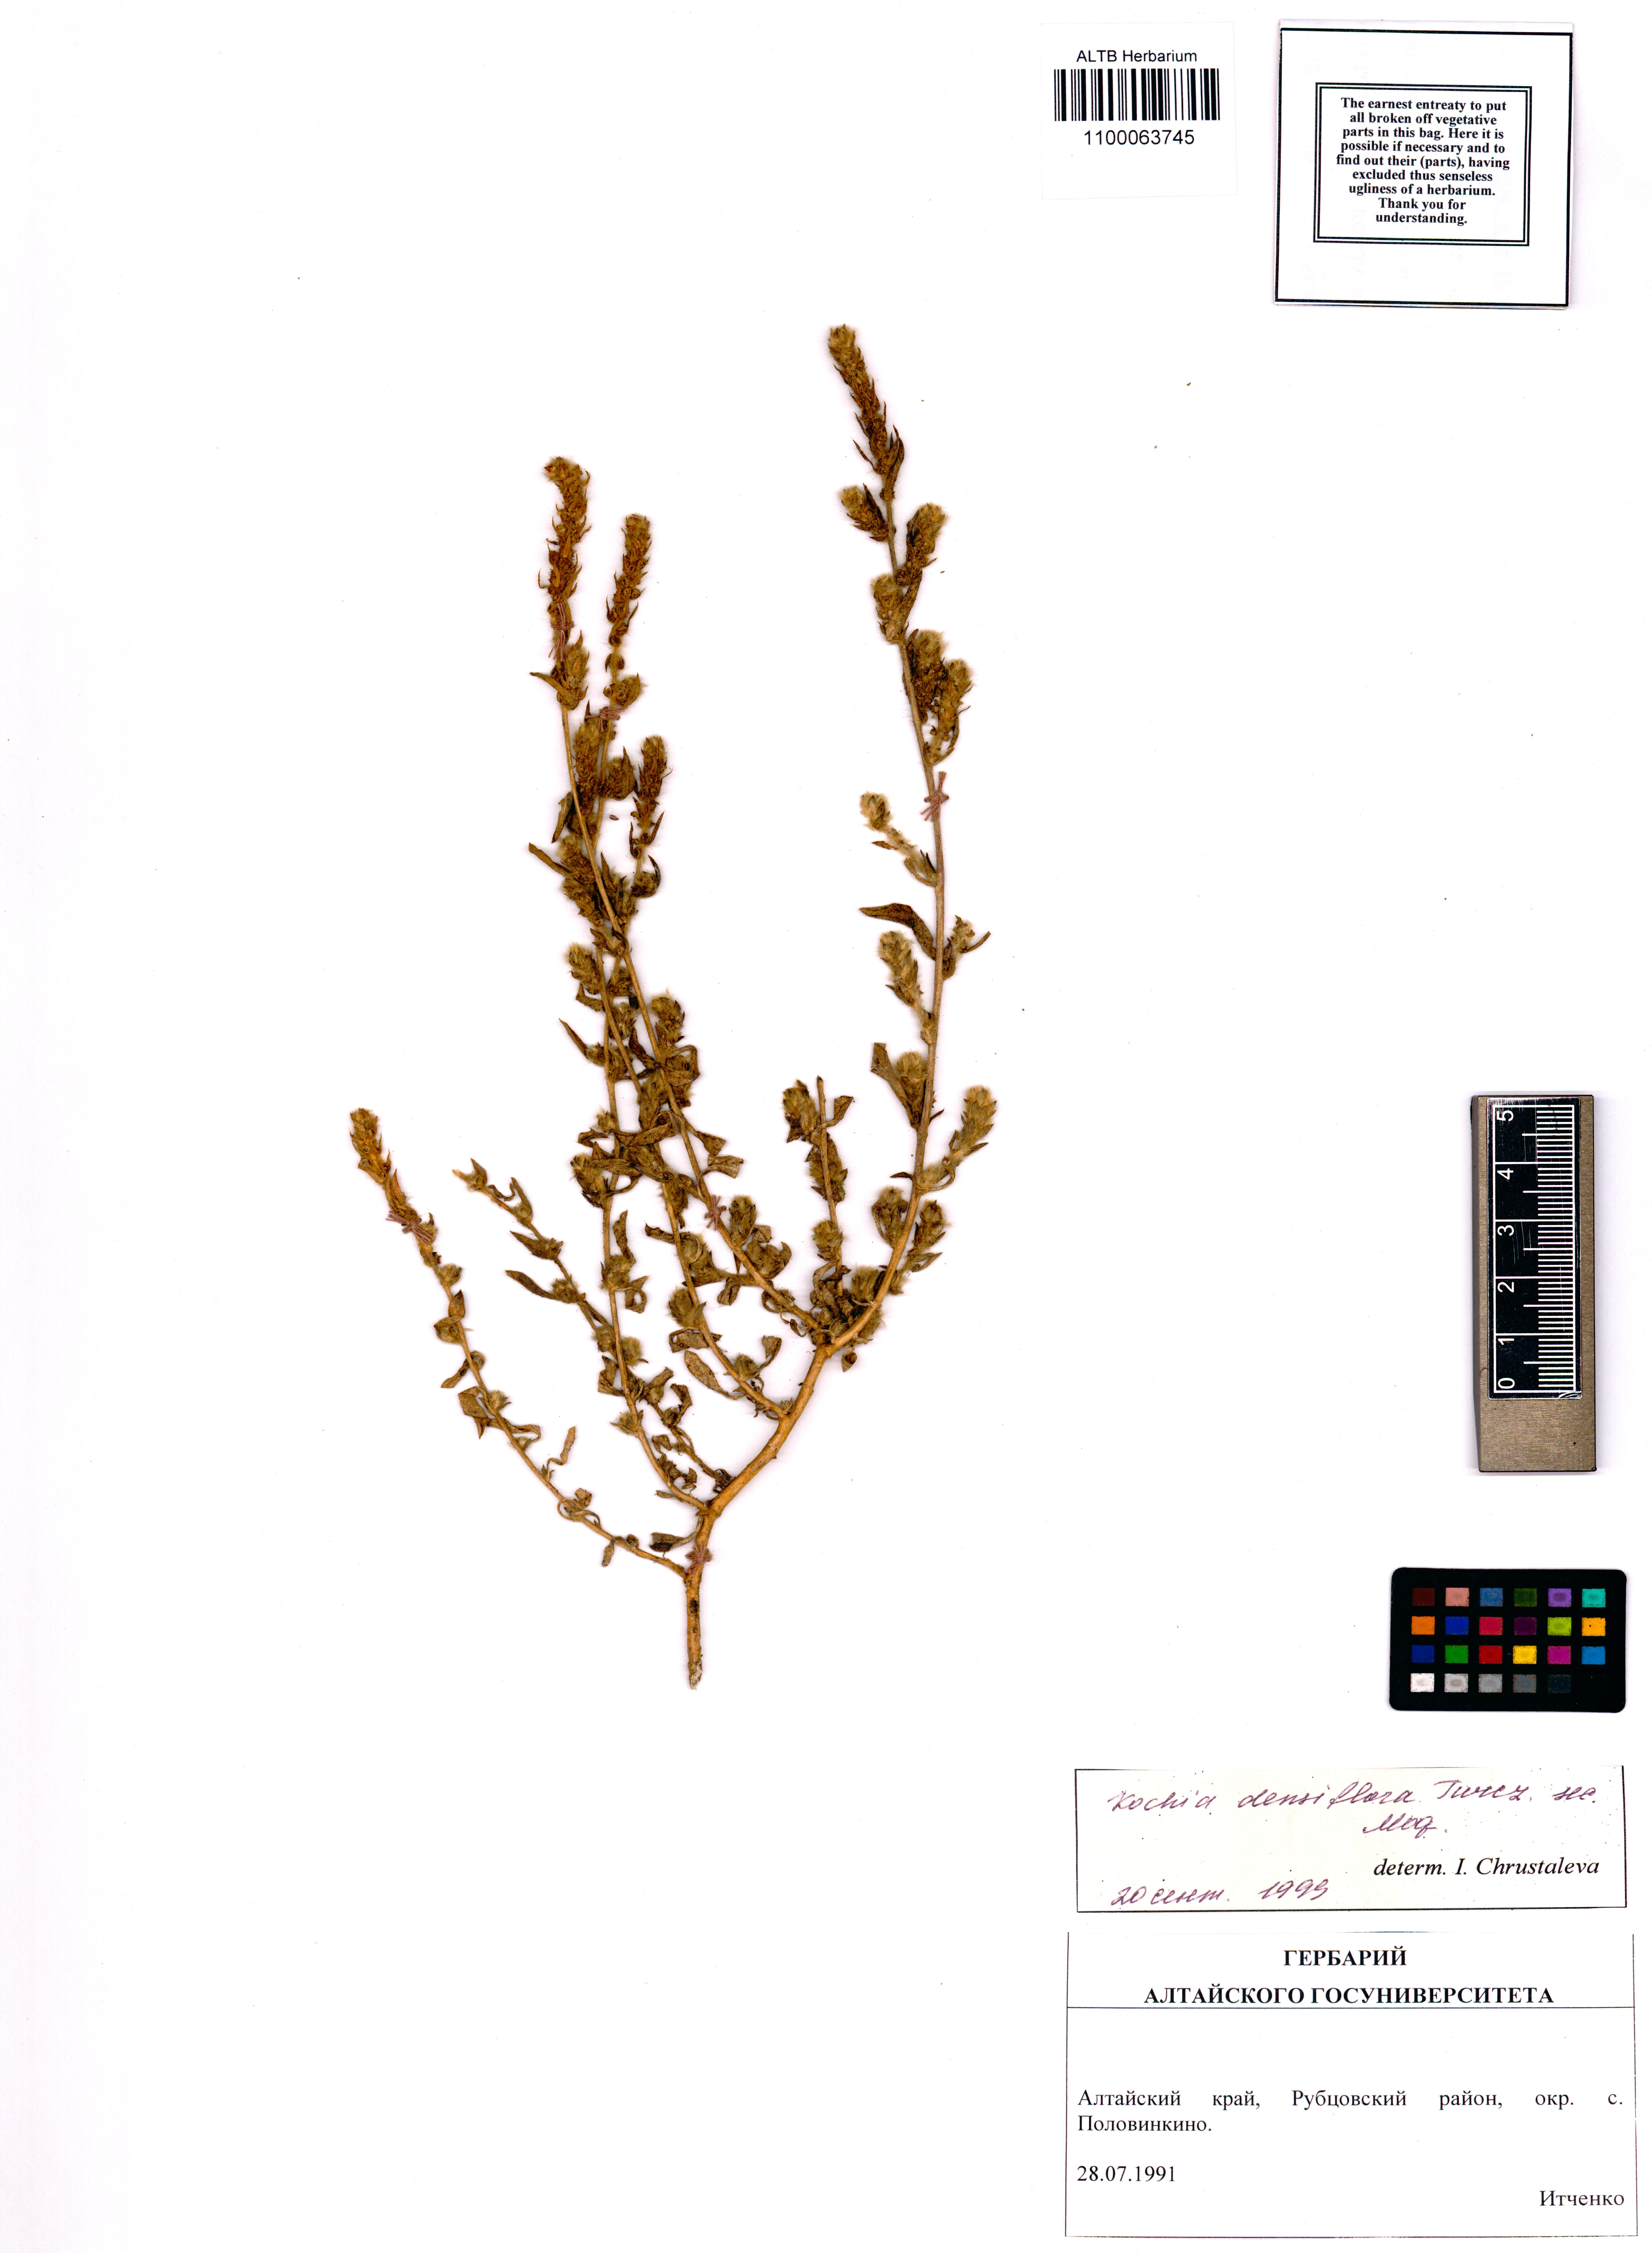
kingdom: Plantae
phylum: Tracheophyta
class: Magnoliopsida
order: Caryophyllales
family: Amaranthaceae
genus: Bassia
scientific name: Bassia scoparia
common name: Belvedere
